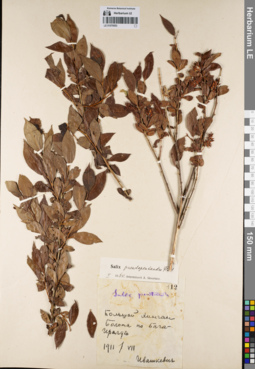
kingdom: Plantae
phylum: Tracheophyta
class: Magnoliopsida
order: Malpighiales
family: Salicaceae
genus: Salix
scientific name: Salix pseudopentandra
